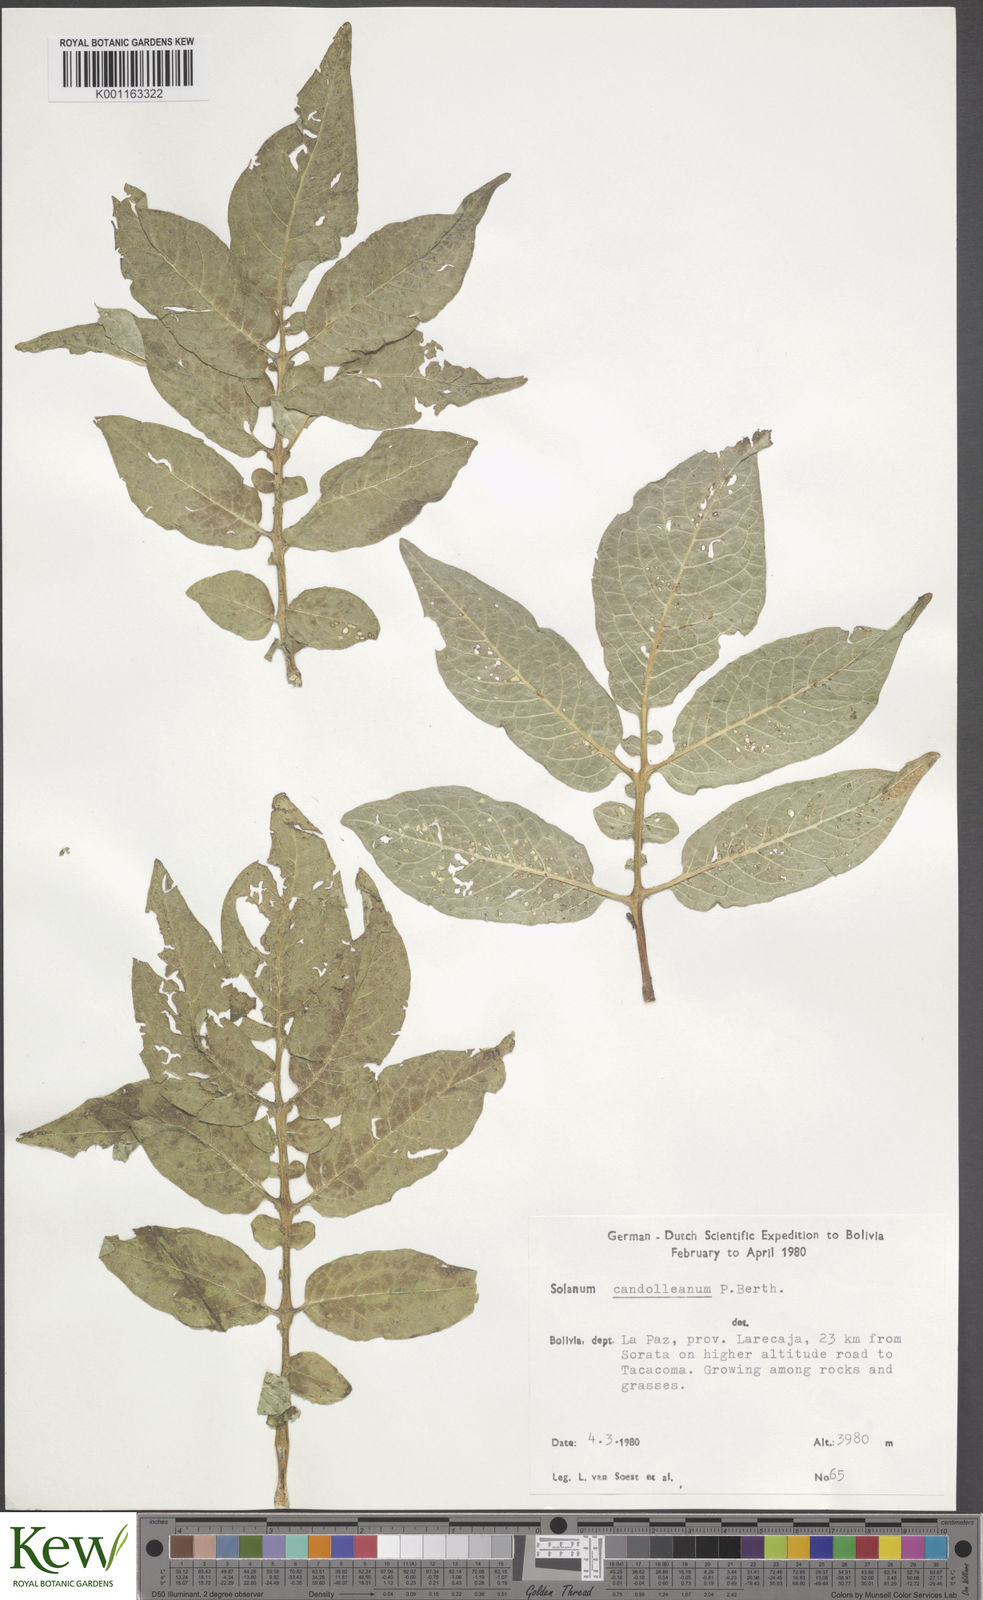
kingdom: Plantae
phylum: Tracheophyta
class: Magnoliopsida
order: Solanales
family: Solanaceae
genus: Solanum
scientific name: Solanum candolleanum
